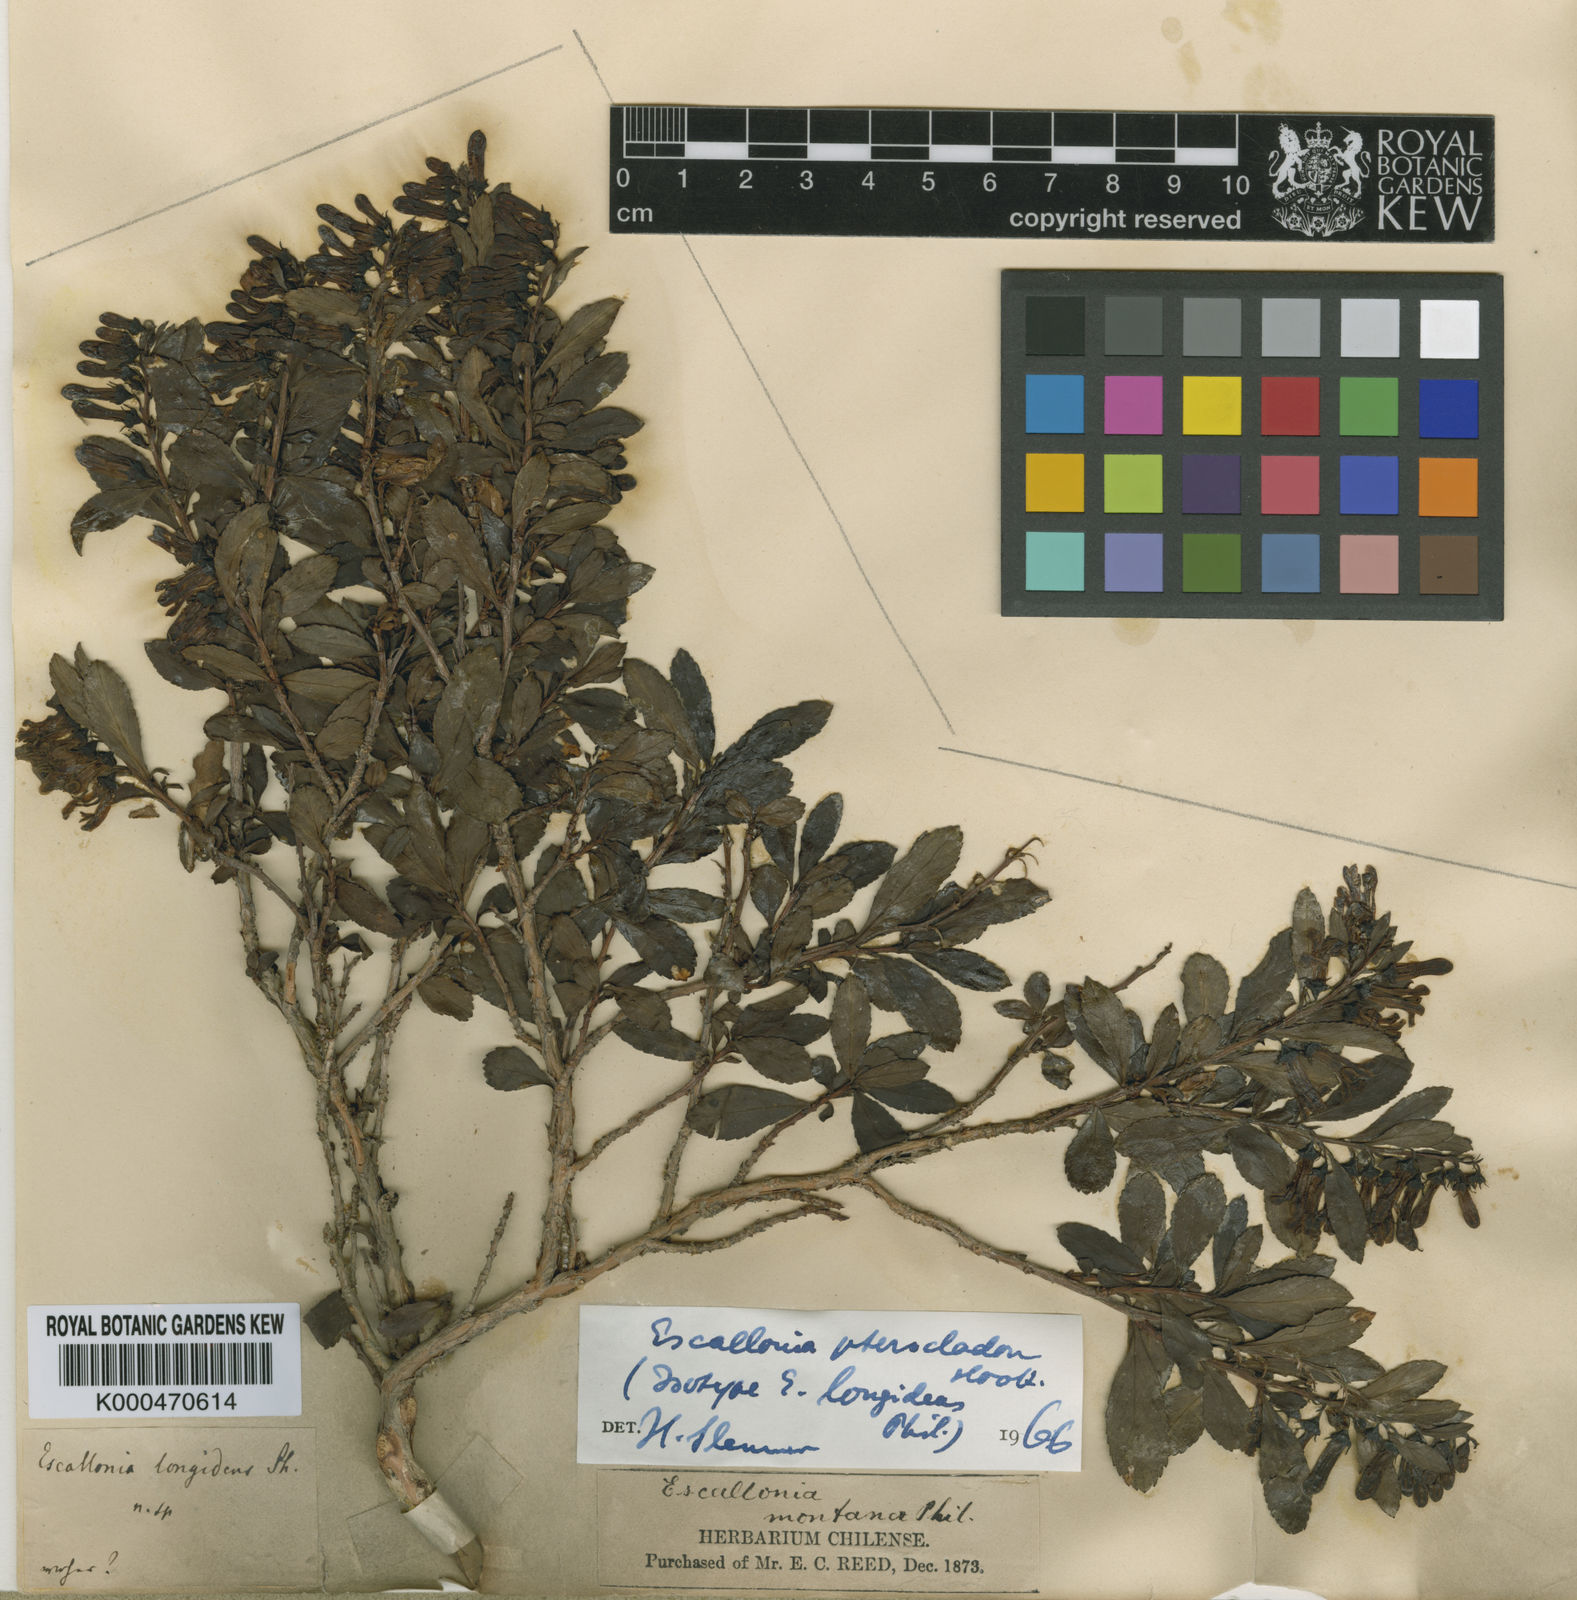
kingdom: Plantae
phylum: Tracheophyta
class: Magnoliopsida
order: Escalloniales
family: Escalloniaceae
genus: Escallonia
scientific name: Escallonia rosea
